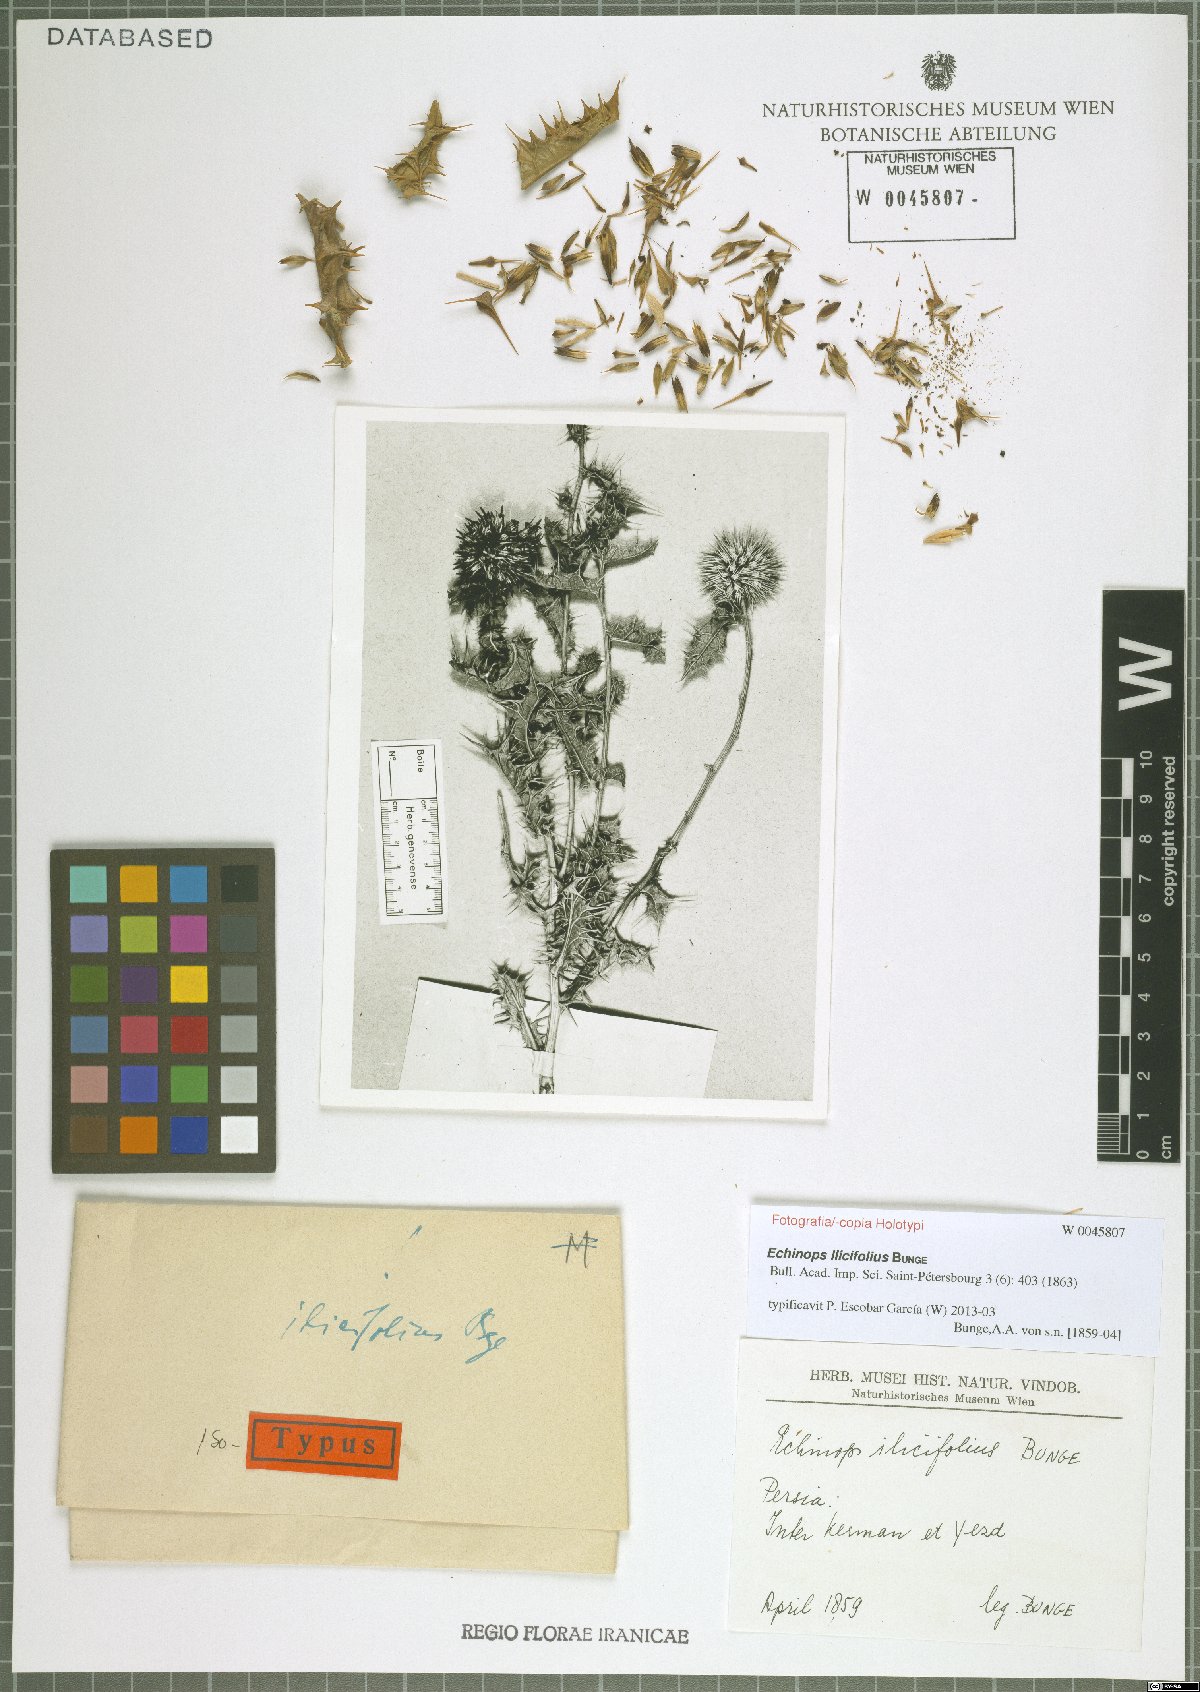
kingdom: Plantae
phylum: Tracheophyta
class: Magnoliopsida
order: Asterales
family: Asteraceae
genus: Echinops
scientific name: Echinops illicifolius
